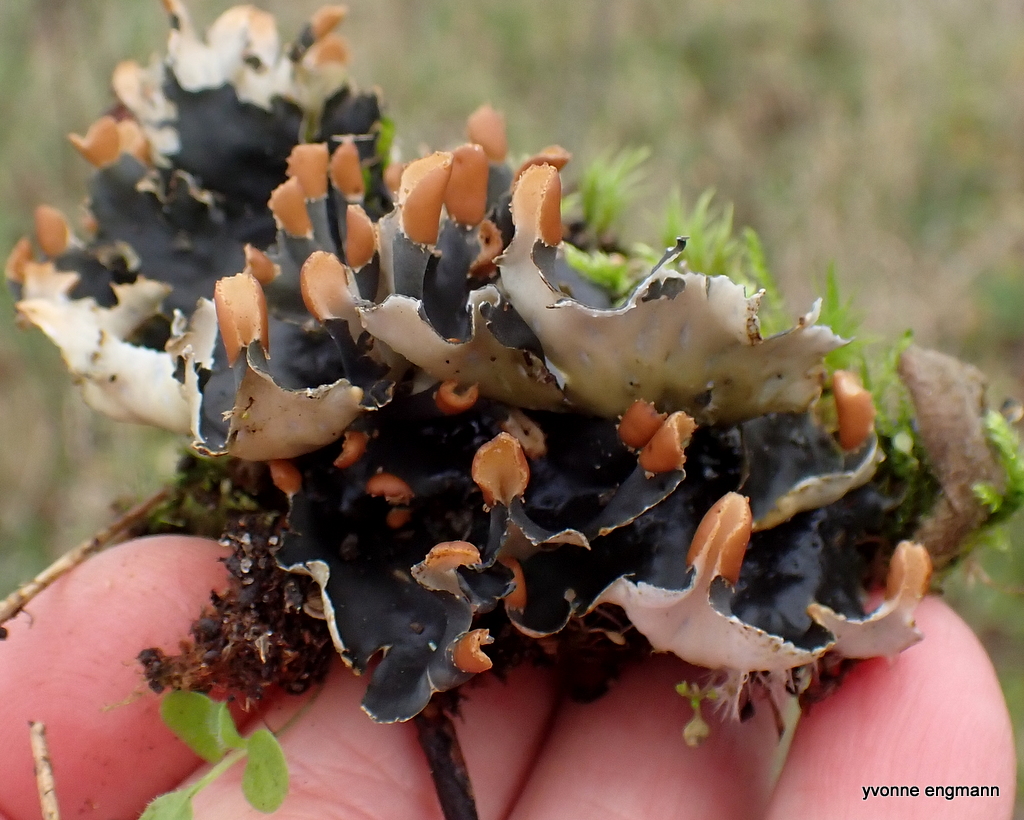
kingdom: Fungi
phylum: Ascomycota
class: Lecanoromycetes
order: Peltigerales
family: Peltigeraceae
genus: Peltigera
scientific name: Peltigera hymenina
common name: hinde-skjoldlav
